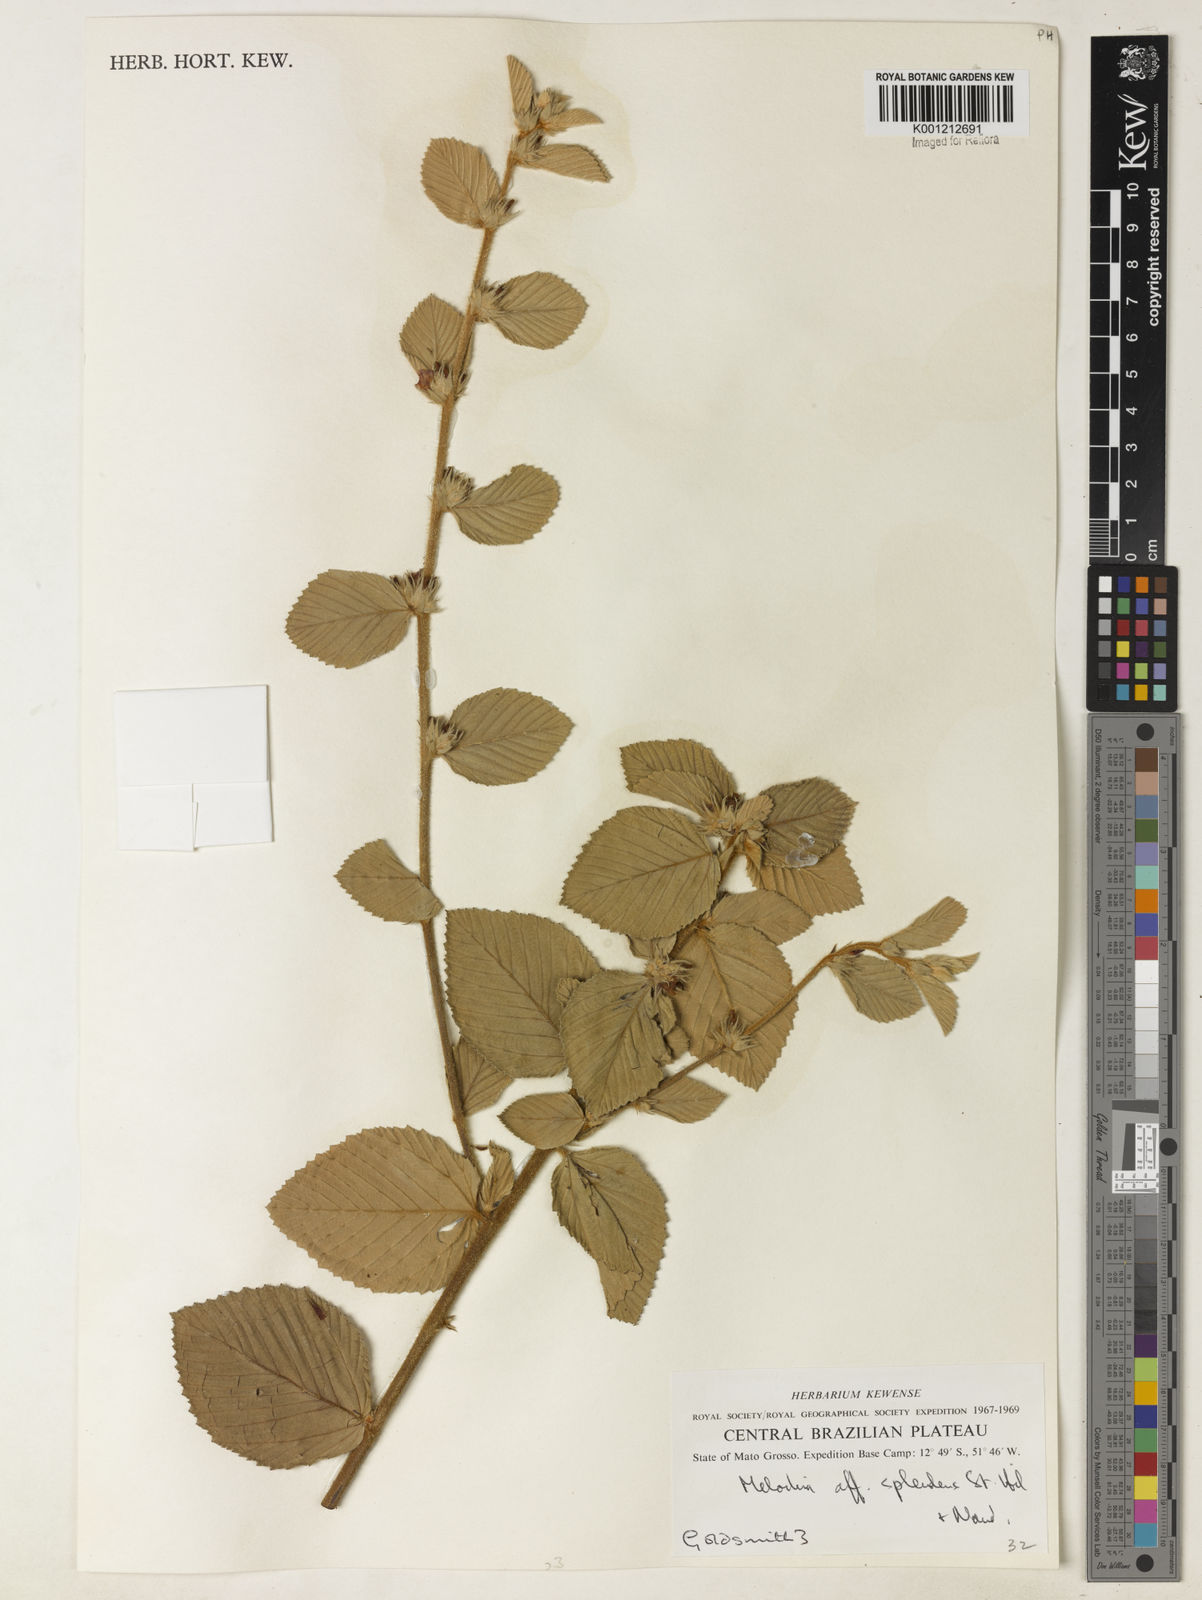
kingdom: Plantae
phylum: Tracheophyta
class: Magnoliopsida
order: Malvales
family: Malvaceae
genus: Melochia
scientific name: Melochia splendens
